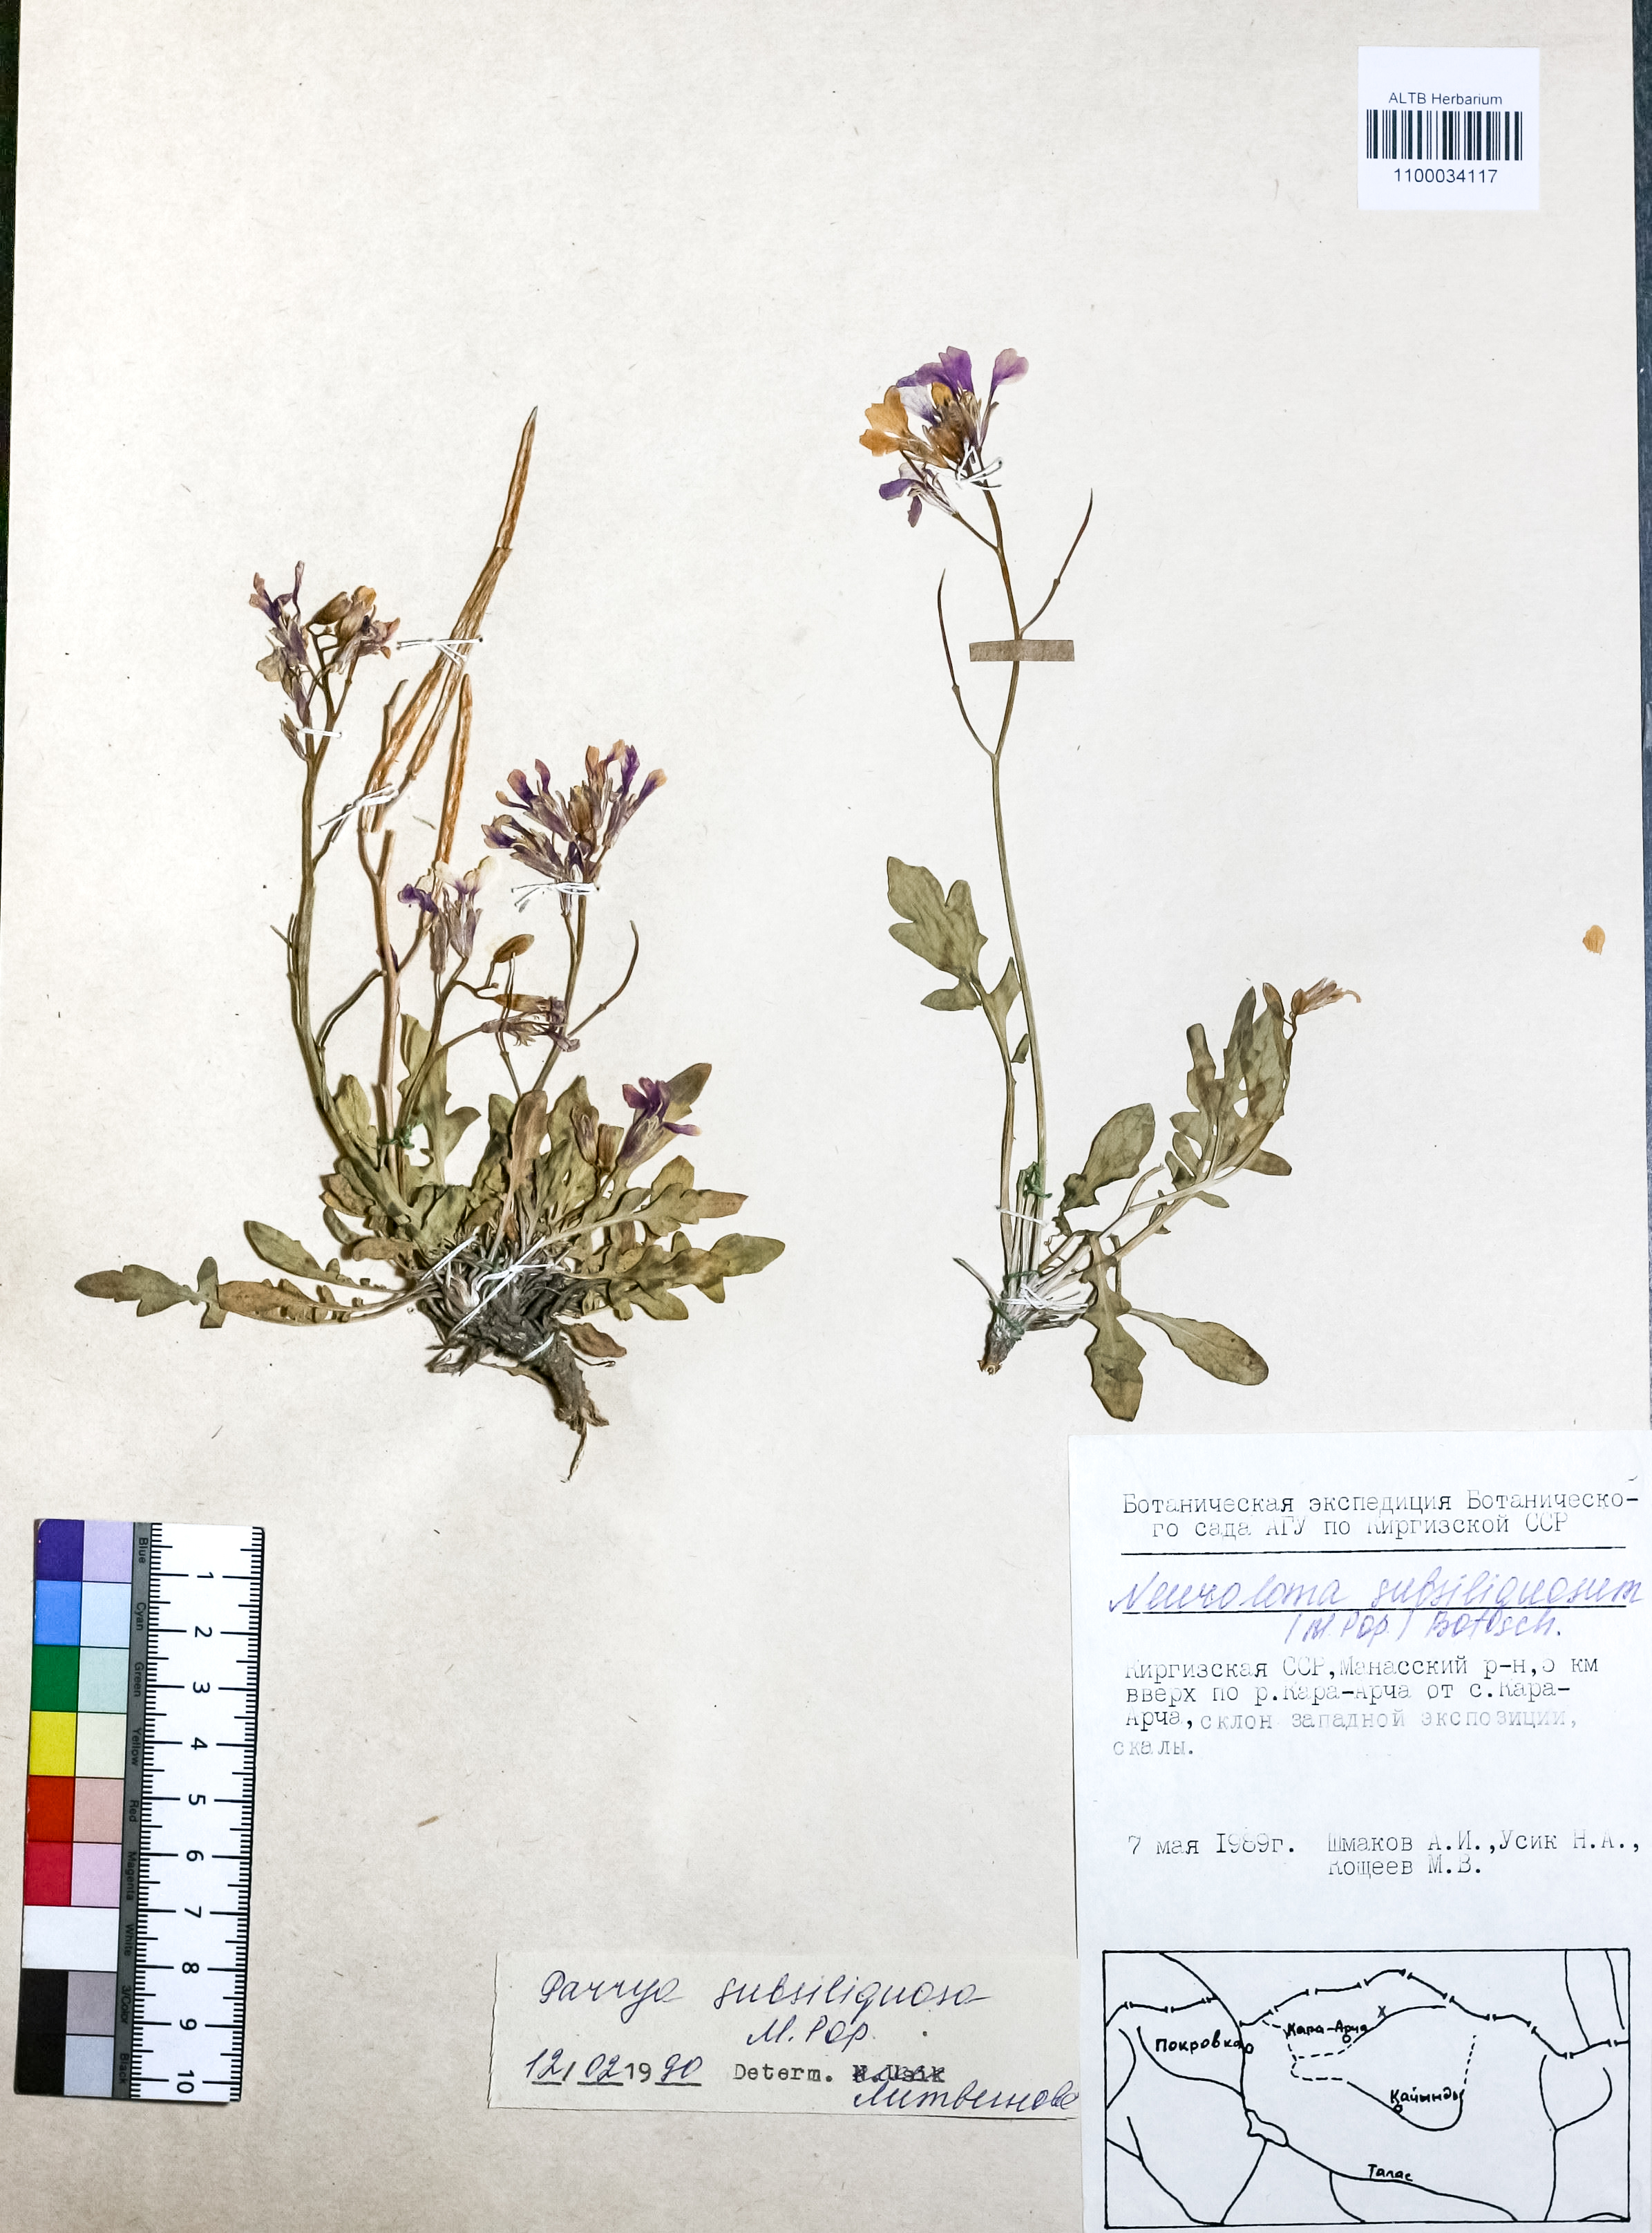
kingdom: Plantae
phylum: Tracheophyta
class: Magnoliopsida
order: Brassicales
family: Brassicaceae
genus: Parrya
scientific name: Parrya subsiliquosa
